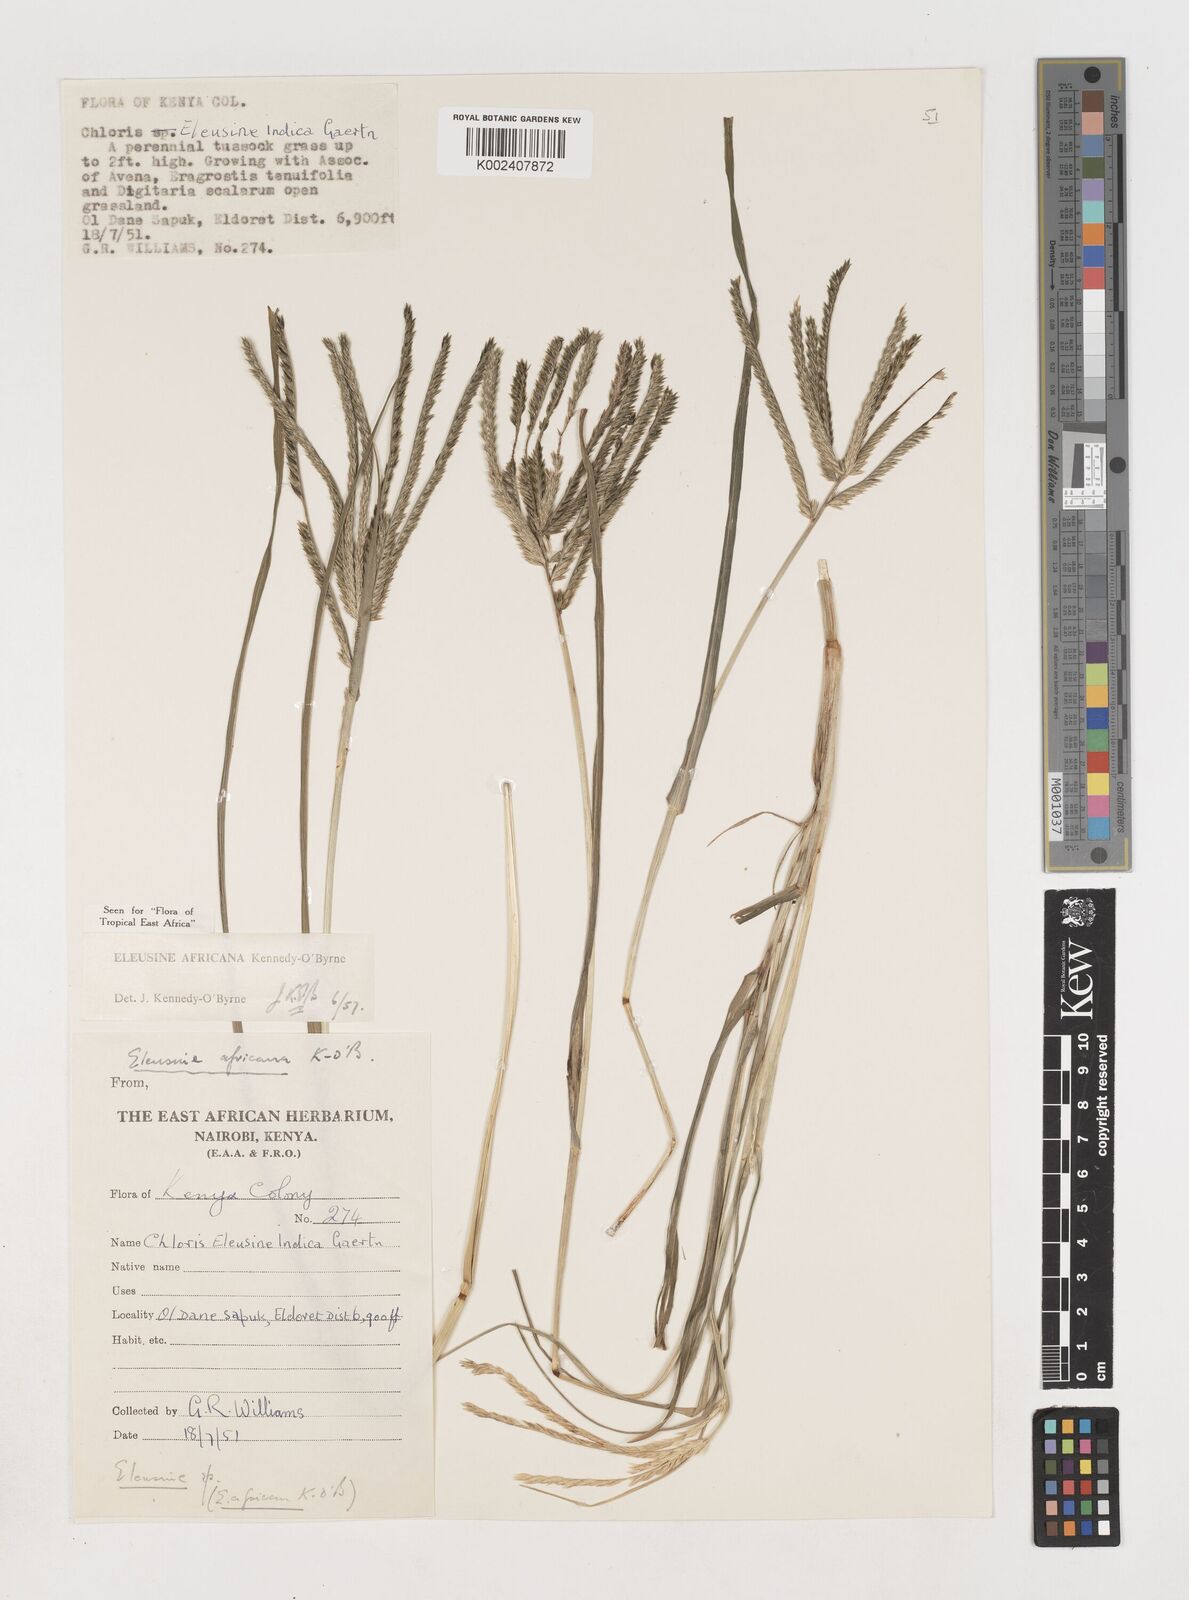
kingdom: Plantae
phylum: Tracheophyta
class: Liliopsida
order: Poales
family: Poaceae
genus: Eleusine
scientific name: Eleusine africana
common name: Wild african finger millet
